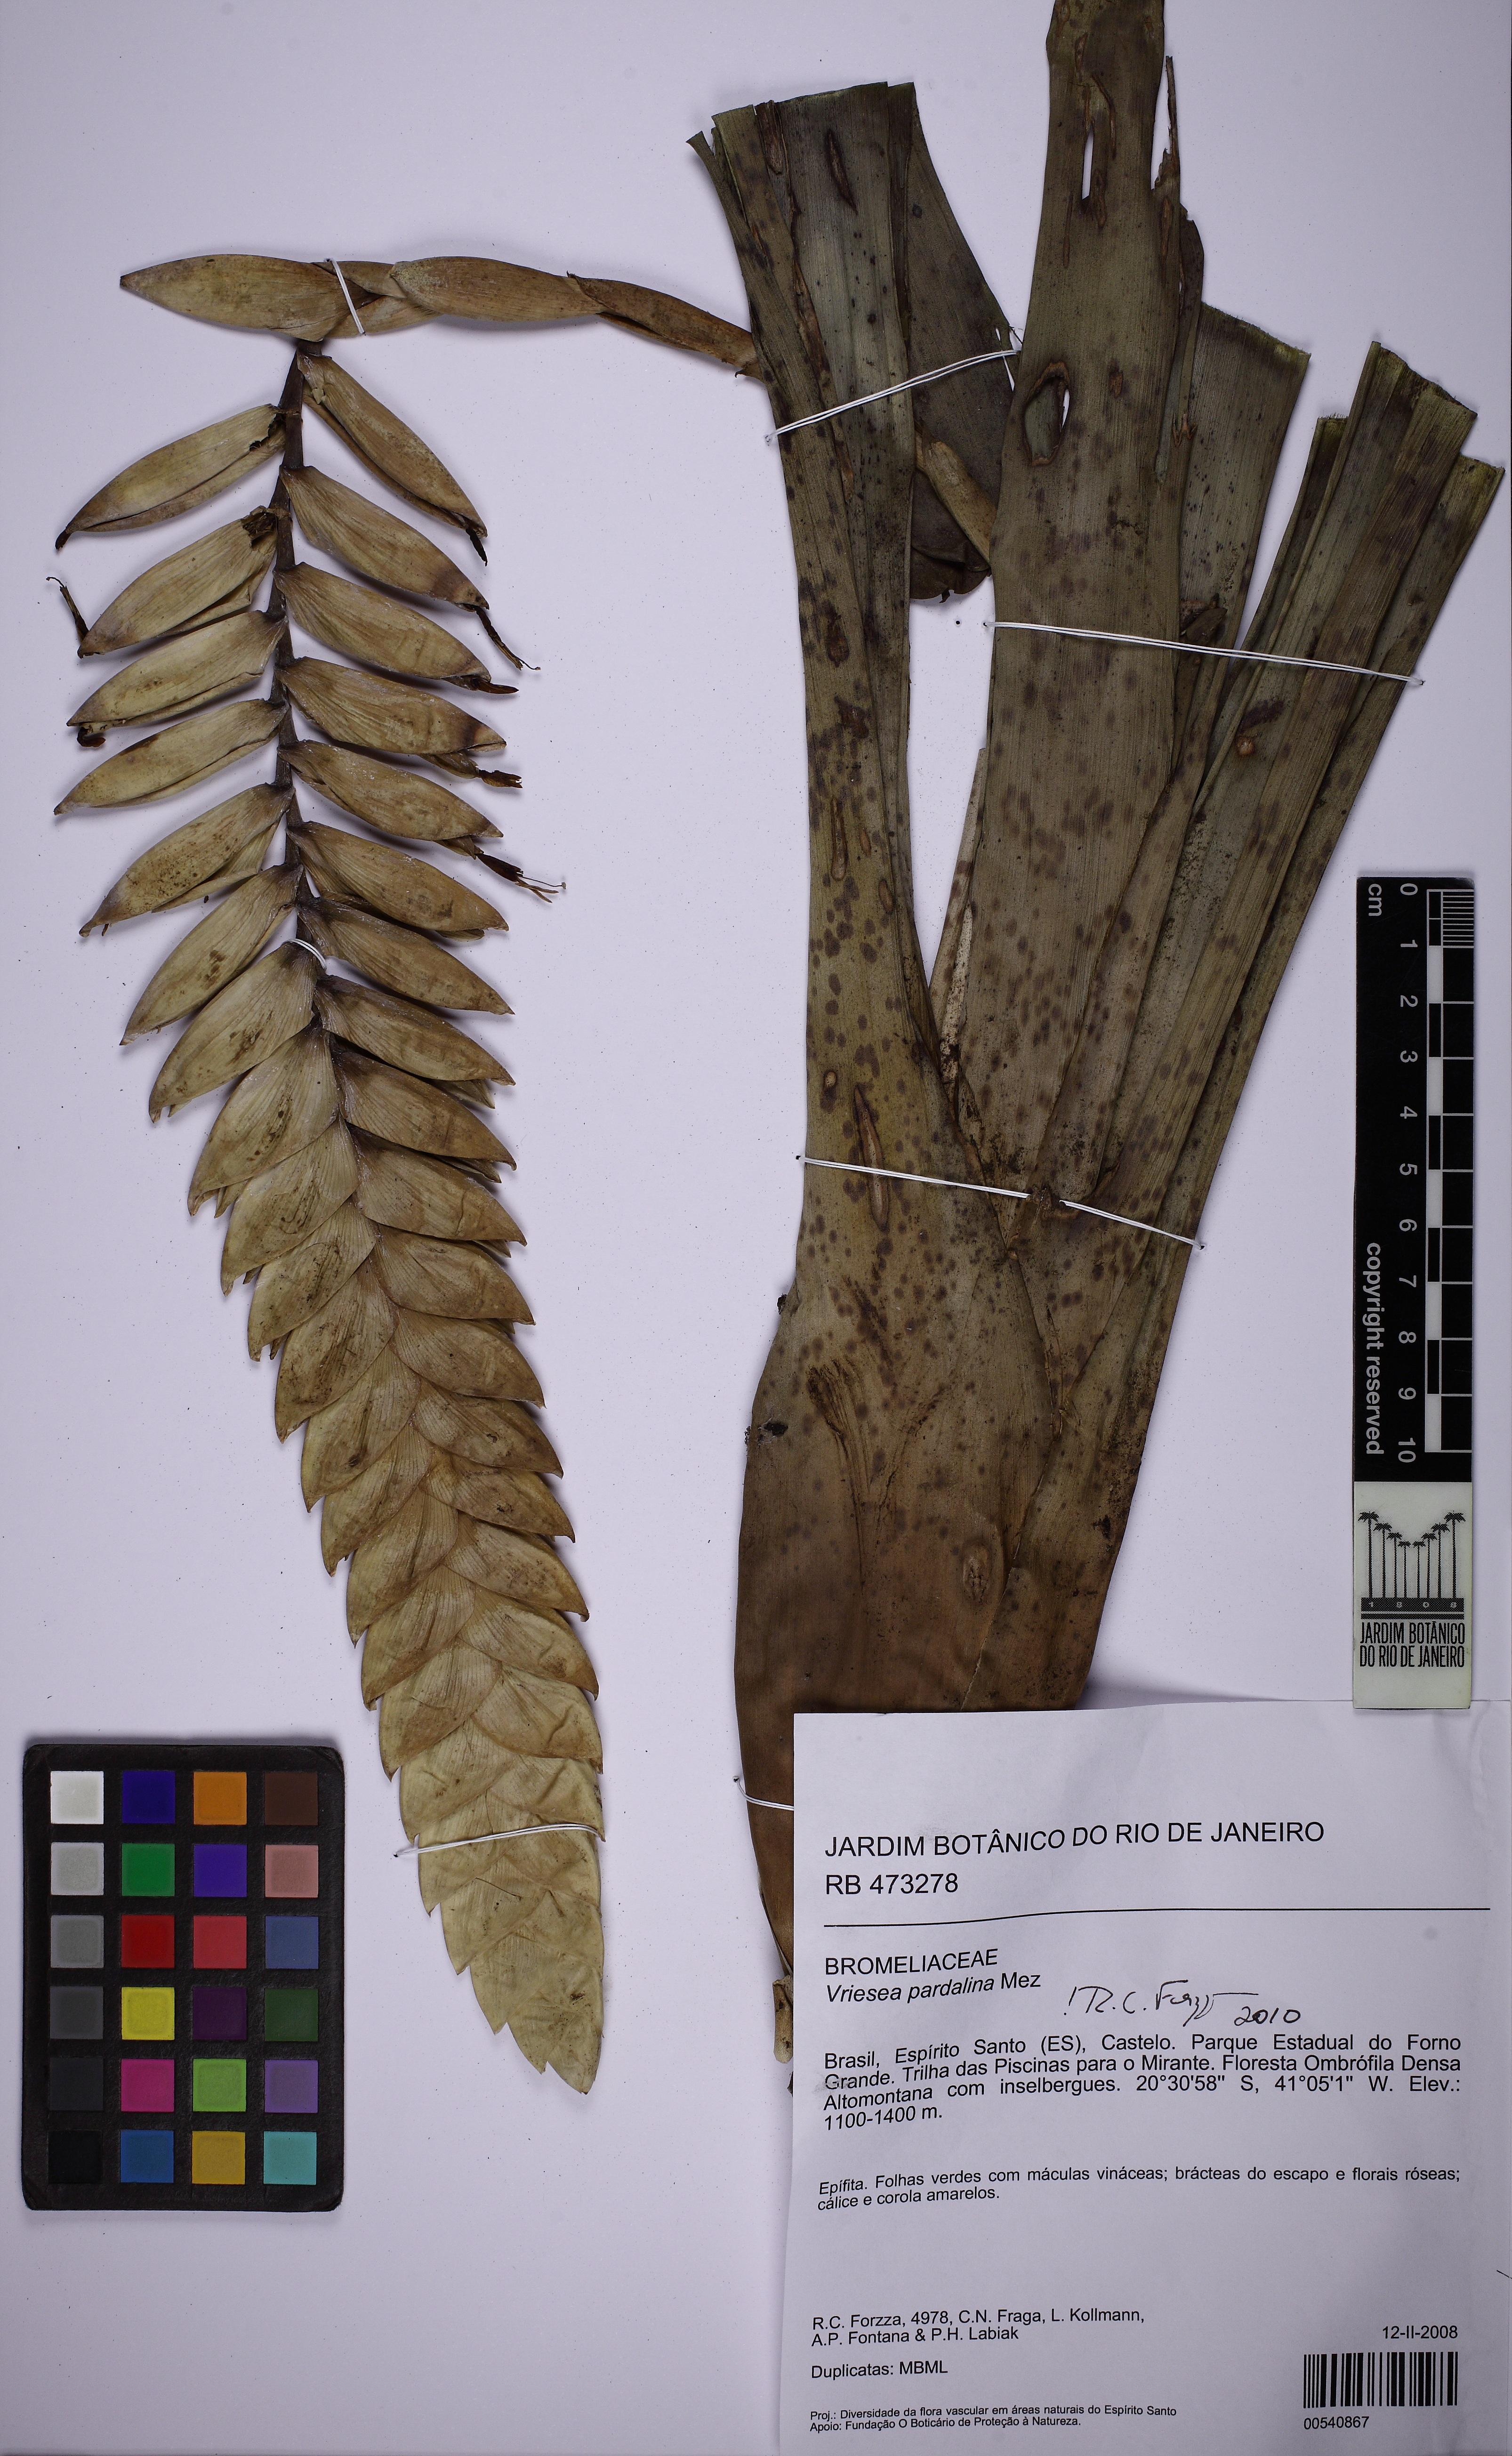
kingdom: Plantae
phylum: Tracheophyta
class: Liliopsida
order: Poales
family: Bromeliaceae
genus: Vriesea
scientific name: Vriesea pardalina
